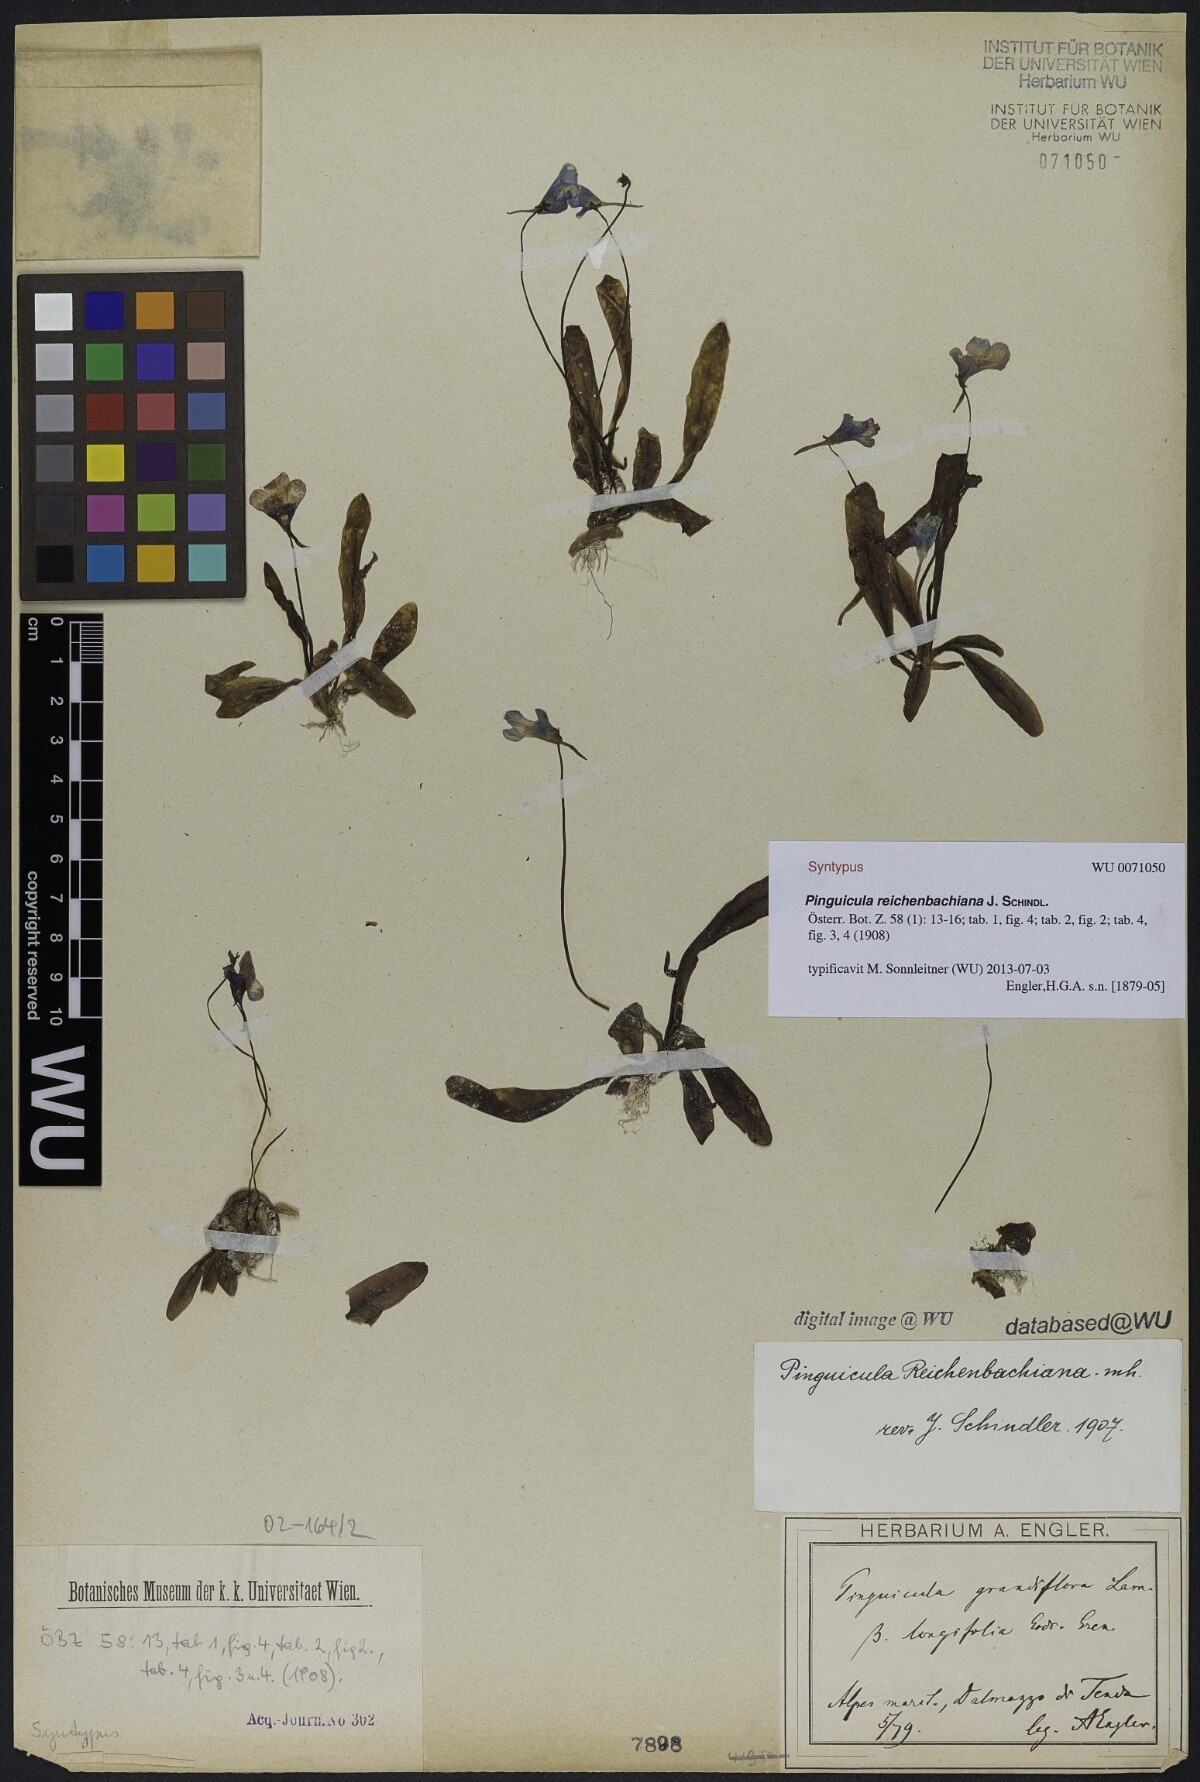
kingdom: Plantae
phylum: Tracheophyta
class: Magnoliopsida
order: Lamiales
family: Lentibulariaceae
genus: Pinguicula
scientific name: Pinguicula longifolia
